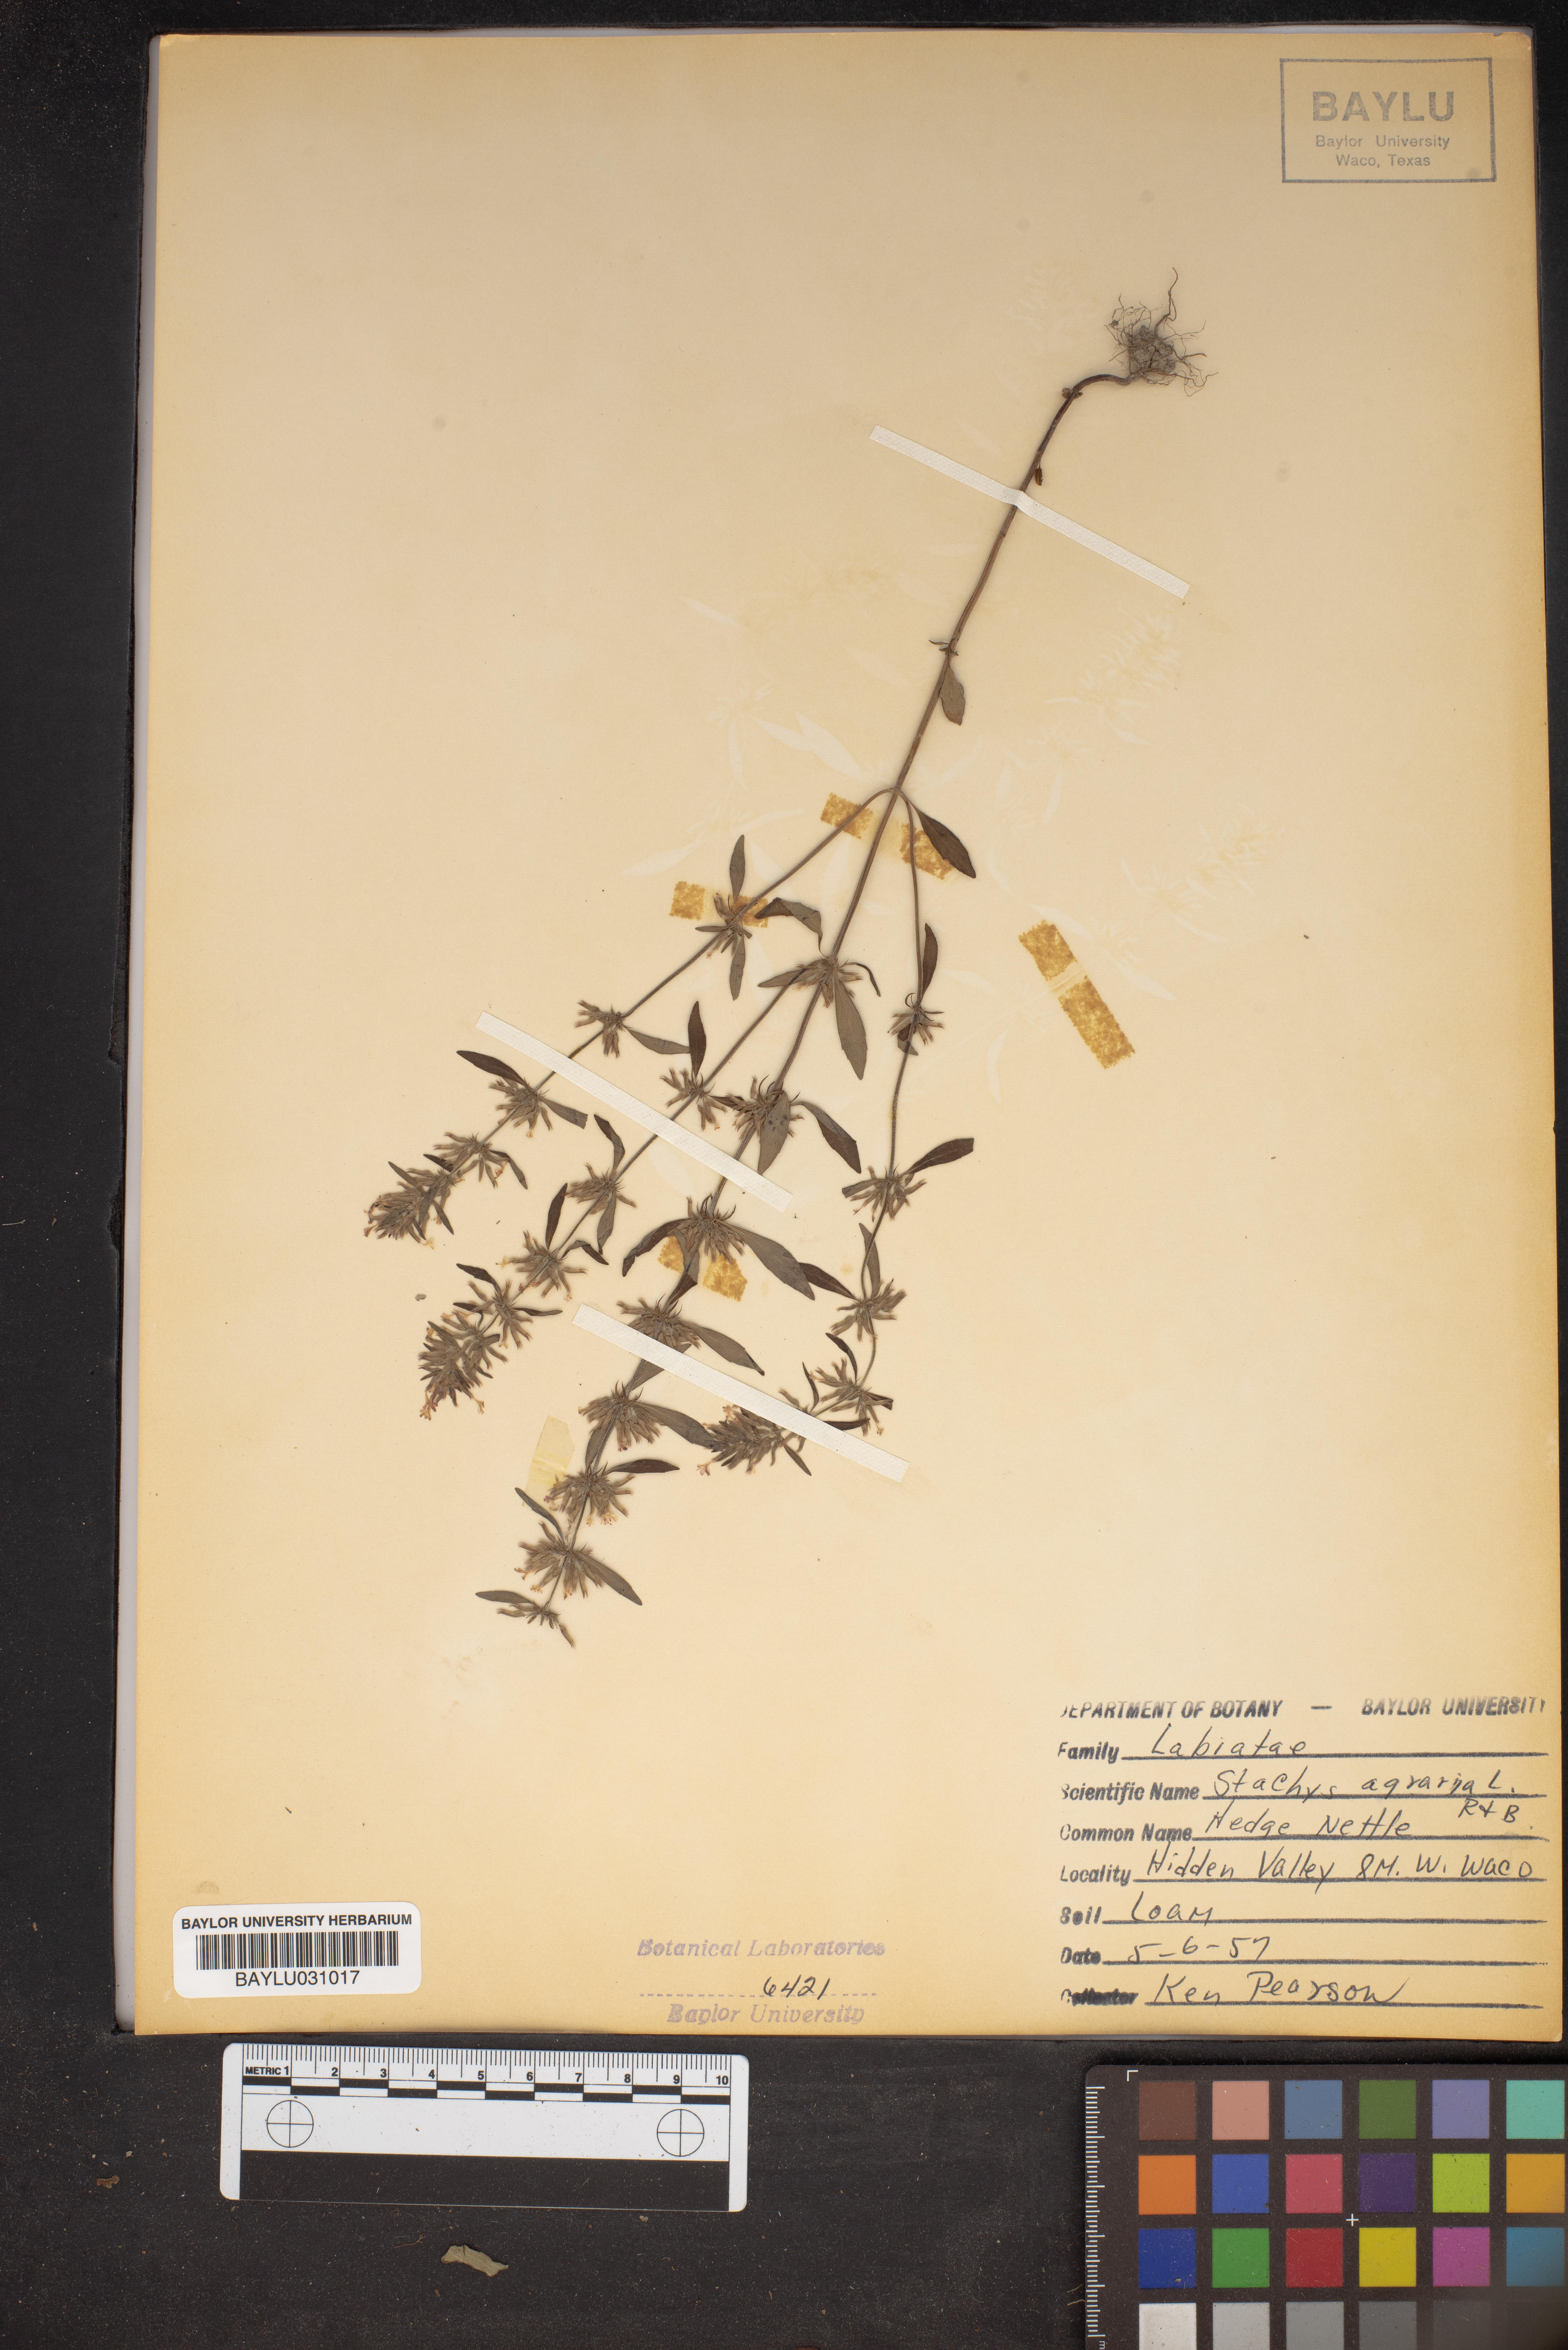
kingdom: Plantae
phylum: Tracheophyta
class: Magnoliopsida
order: Lamiales
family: Lamiaceae
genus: Stachys
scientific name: Stachys agraria
